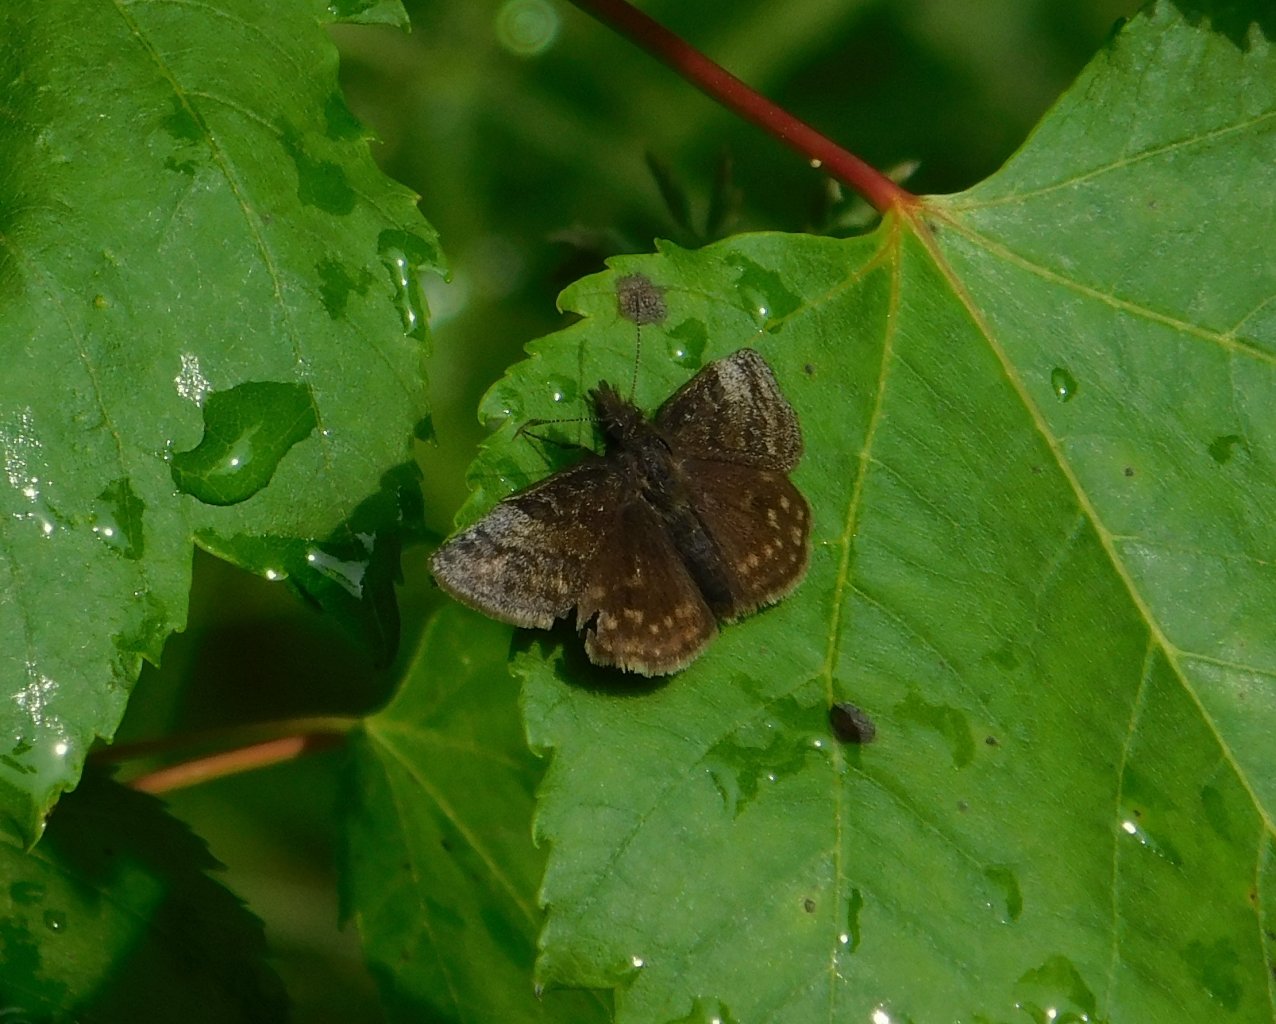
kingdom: Animalia
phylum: Arthropoda
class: Insecta
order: Lepidoptera
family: Hesperiidae
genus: Erynnis
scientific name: Erynnis icelus
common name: Dreamy Duskywing
